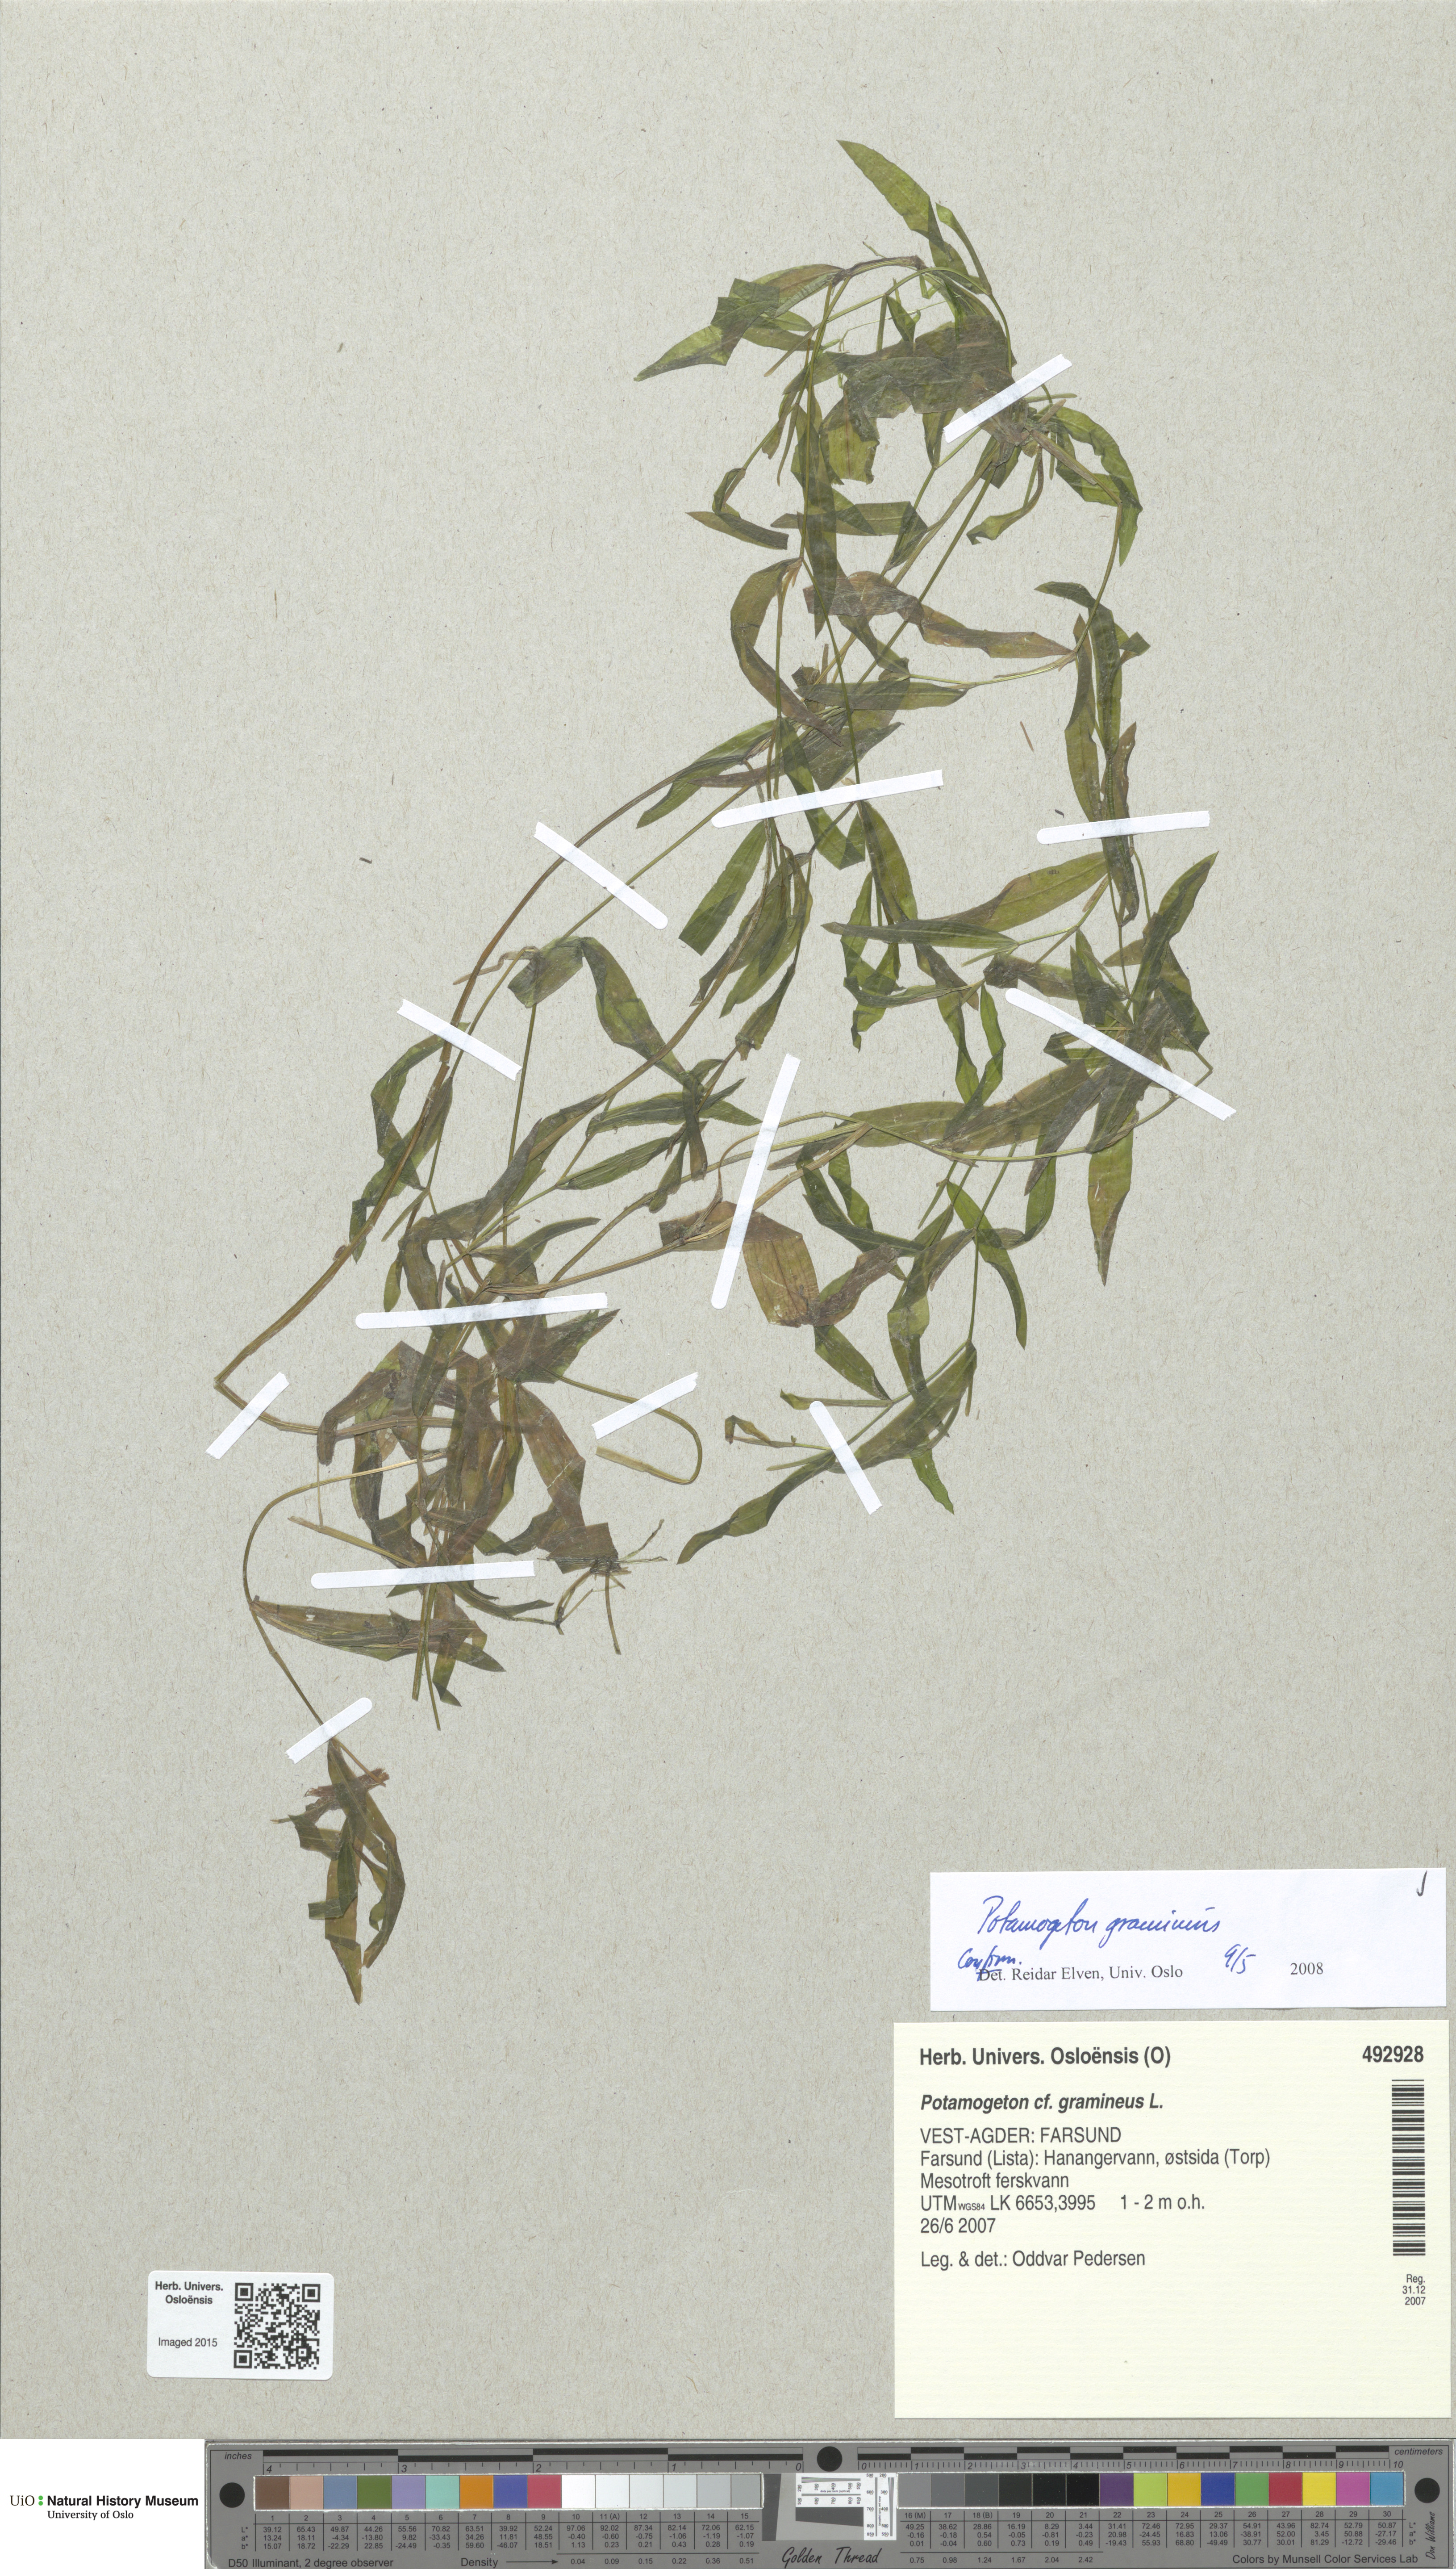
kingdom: Plantae
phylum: Tracheophyta
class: Liliopsida
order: Alismatales
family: Potamogetonaceae
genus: Potamogeton
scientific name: Potamogeton gramineus
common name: Various-leaved pondweed
